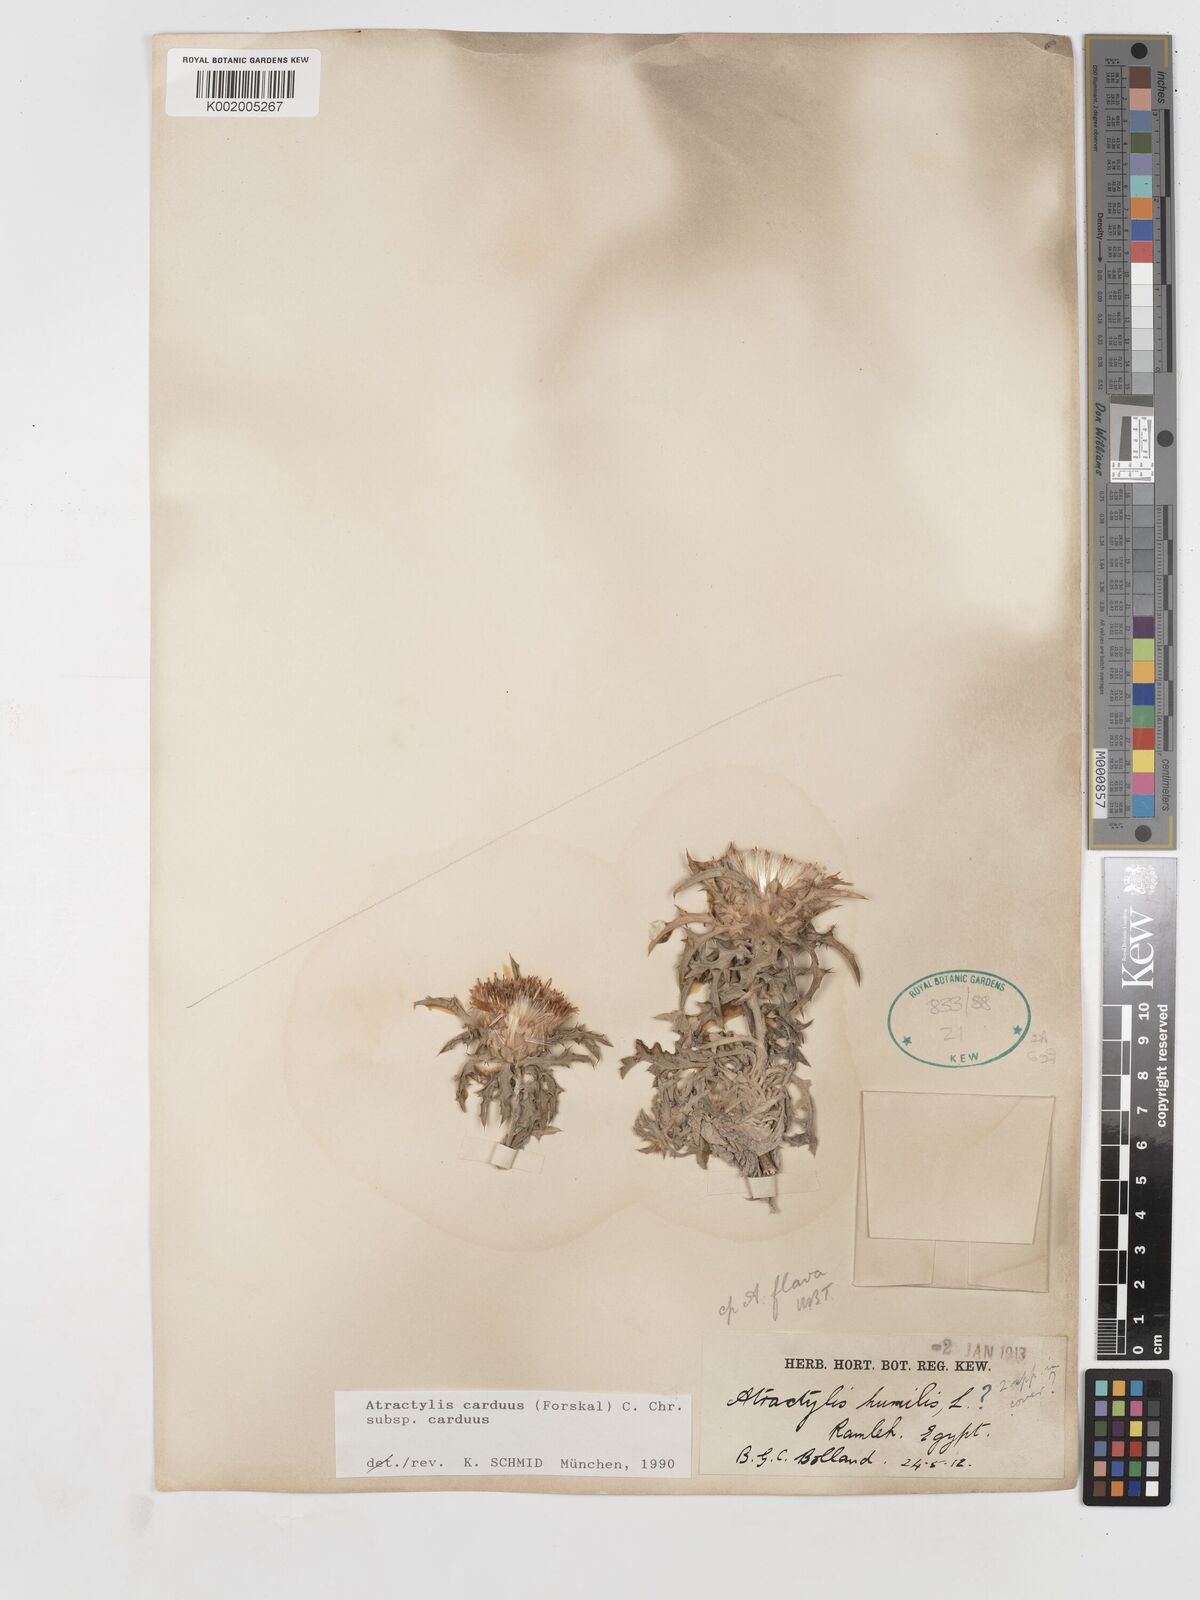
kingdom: Plantae
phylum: Tracheophyta
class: Magnoliopsida
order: Asterales
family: Asteraceae
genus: Atractylis
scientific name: Atractylis carduus
